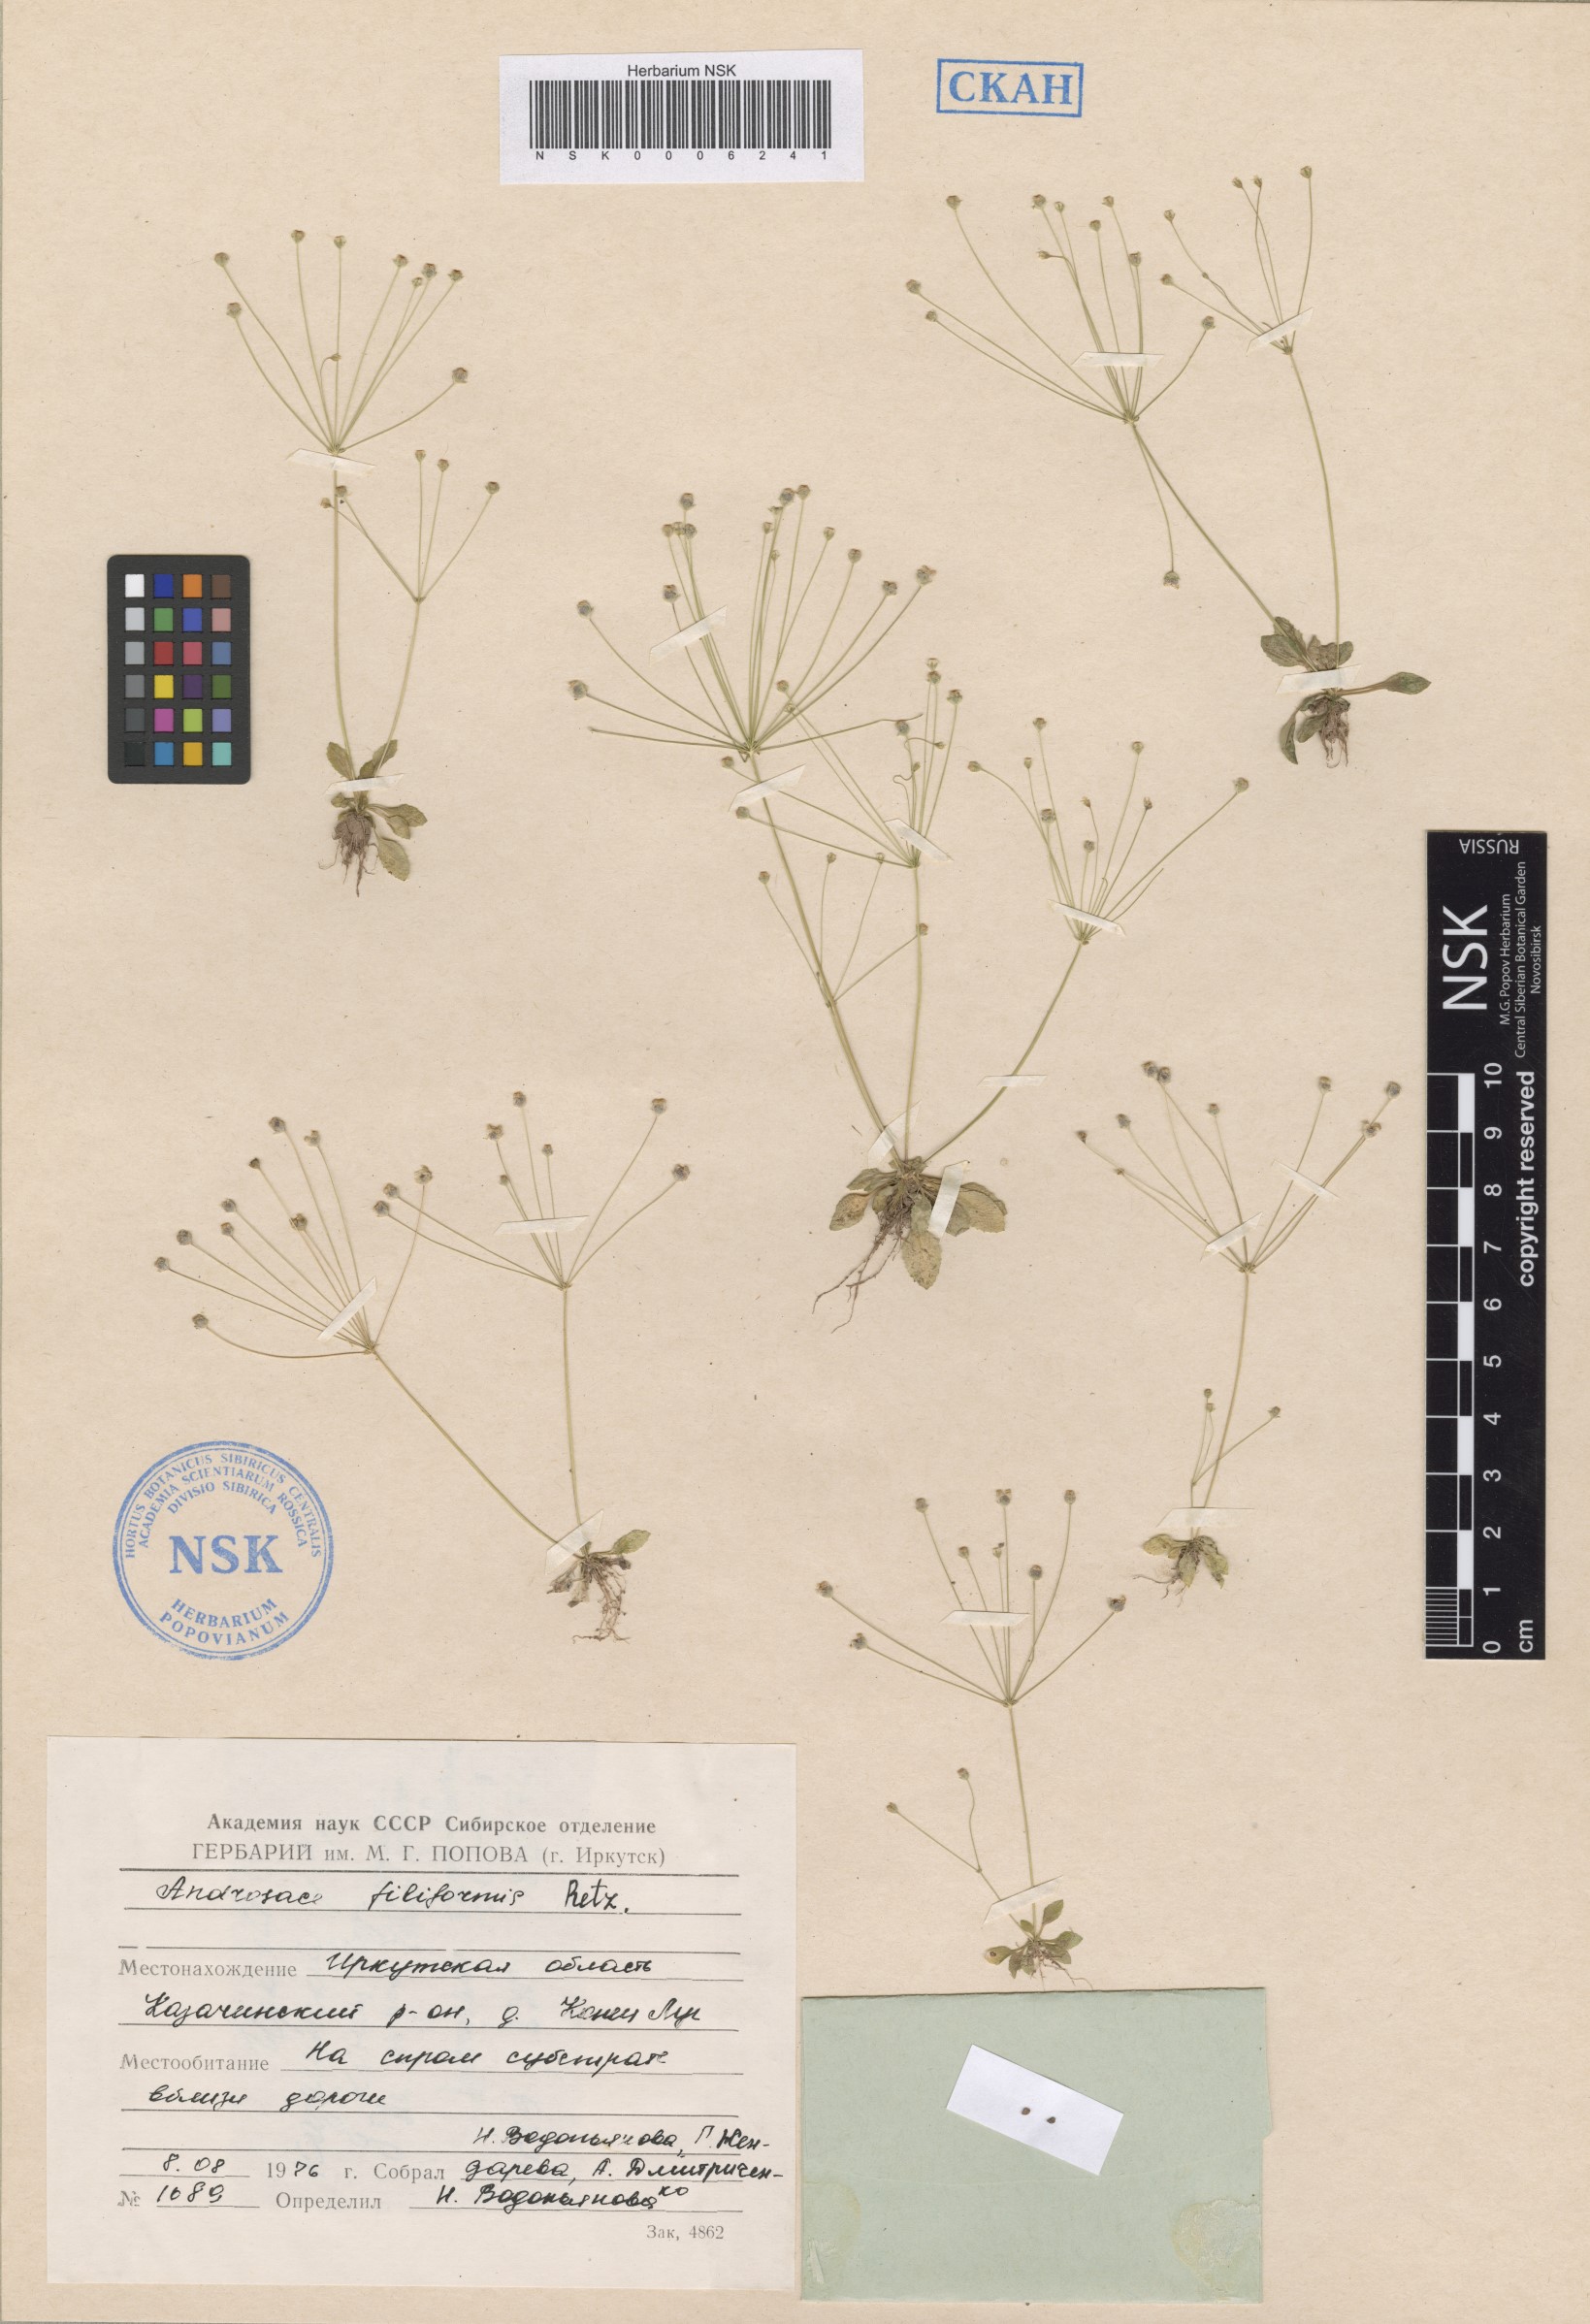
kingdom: Plantae
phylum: Tracheophyta
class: Magnoliopsida
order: Ericales
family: Primulaceae
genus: Androsace
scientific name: Androsace filiformis
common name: Filiform rock jasmine
